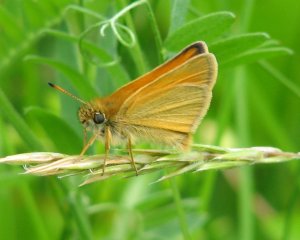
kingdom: Animalia
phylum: Arthropoda
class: Insecta
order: Lepidoptera
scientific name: Lepidoptera
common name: Butterflies
